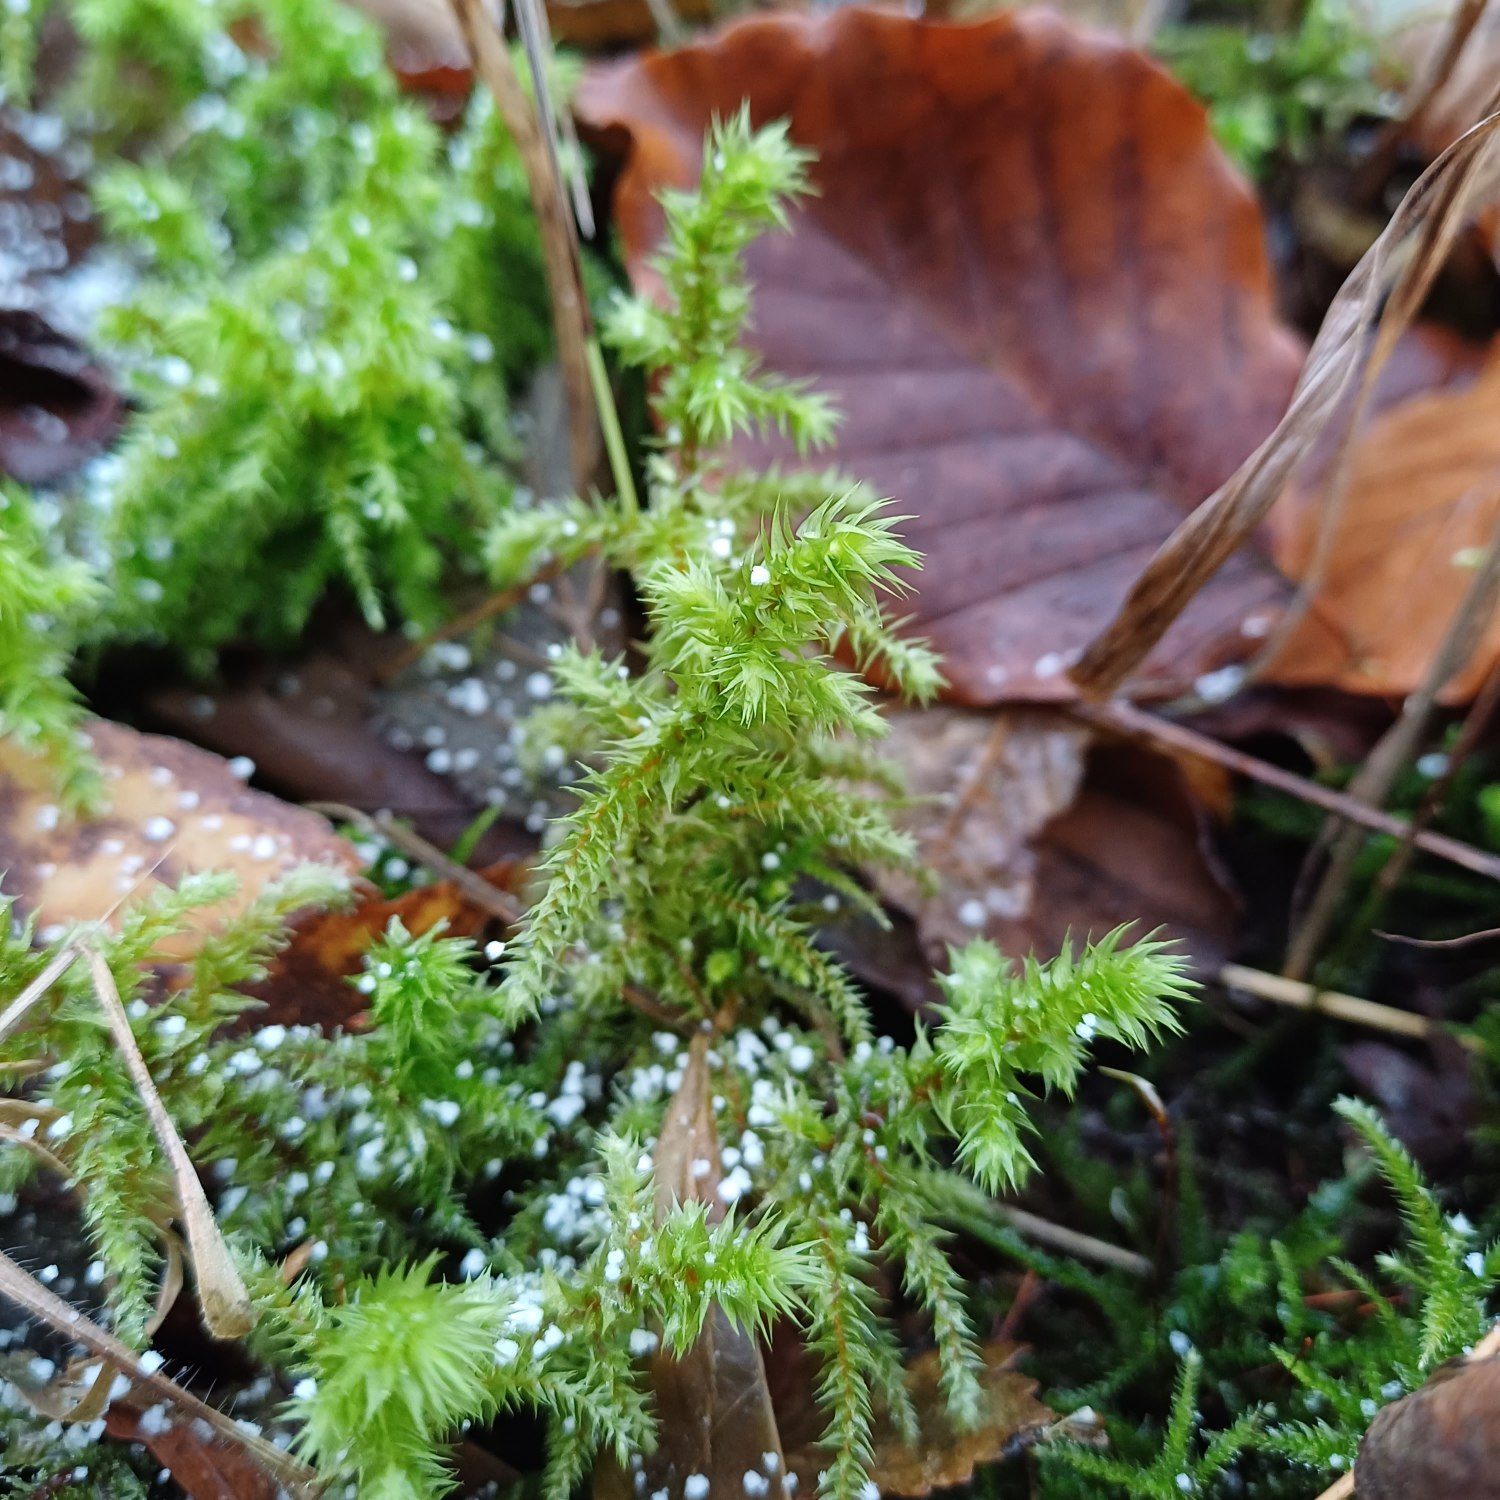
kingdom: Plantae
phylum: Bryophyta
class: Bryopsida
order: Hypnales
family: Hylocomiaceae
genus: Hylocomiadelphus
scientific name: Hylocomiadelphus triquetrus
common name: Stor kransemos
